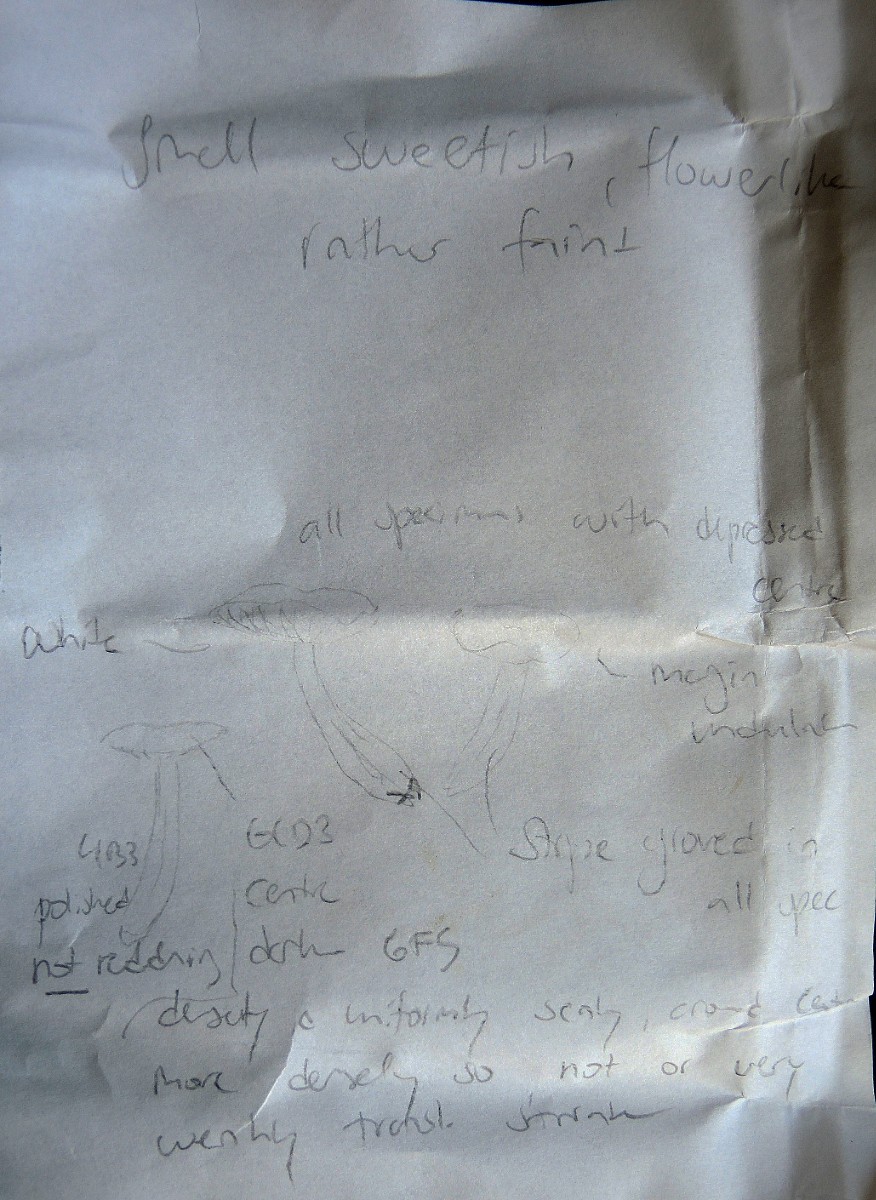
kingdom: Fungi
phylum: Basidiomycota
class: Agaricomycetes
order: Agaricales
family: Entolomataceae
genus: Entoloma
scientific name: Entoloma pseudoturci
